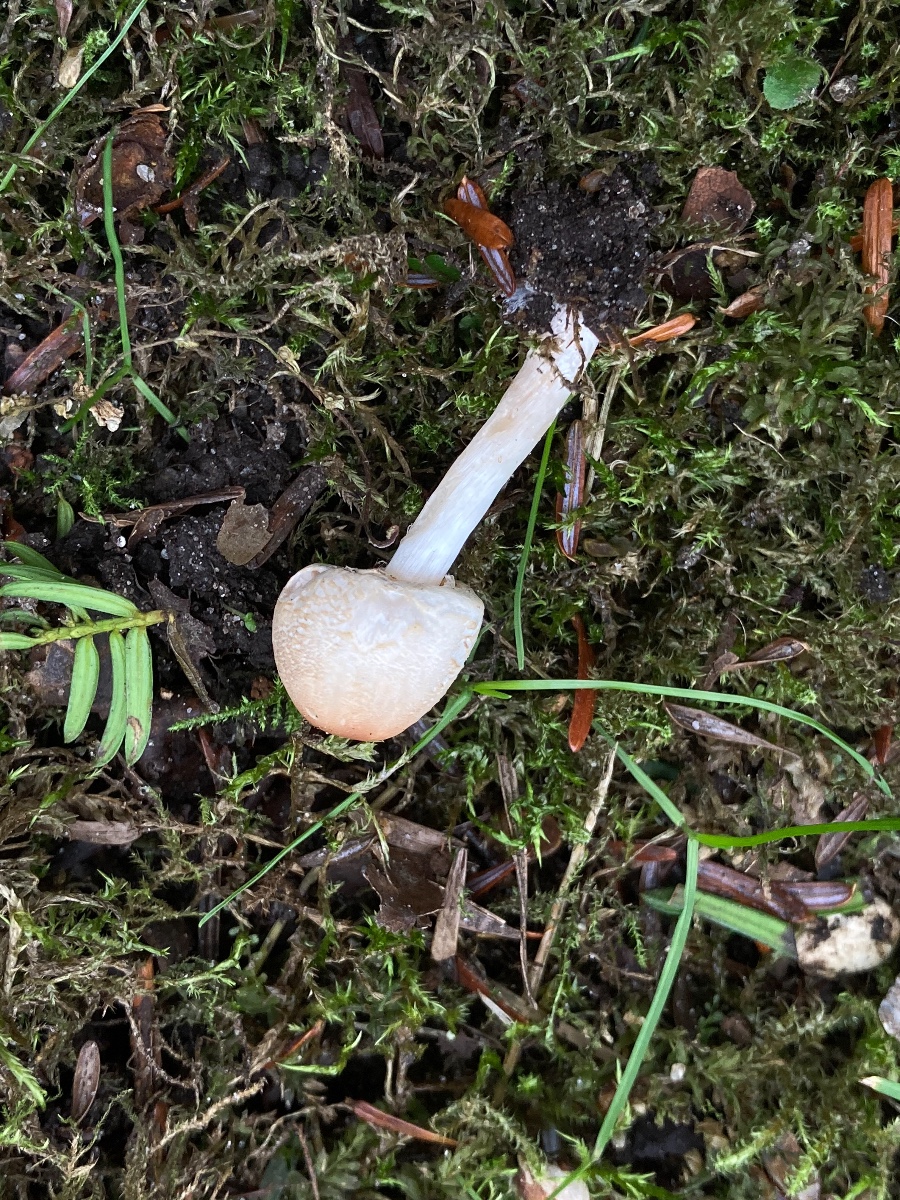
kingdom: Fungi
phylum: Basidiomycota
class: Agaricomycetes
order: Agaricales
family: Agaricaceae
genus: Lepiota
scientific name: Lepiota cristata
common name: stinkende parasolhat
